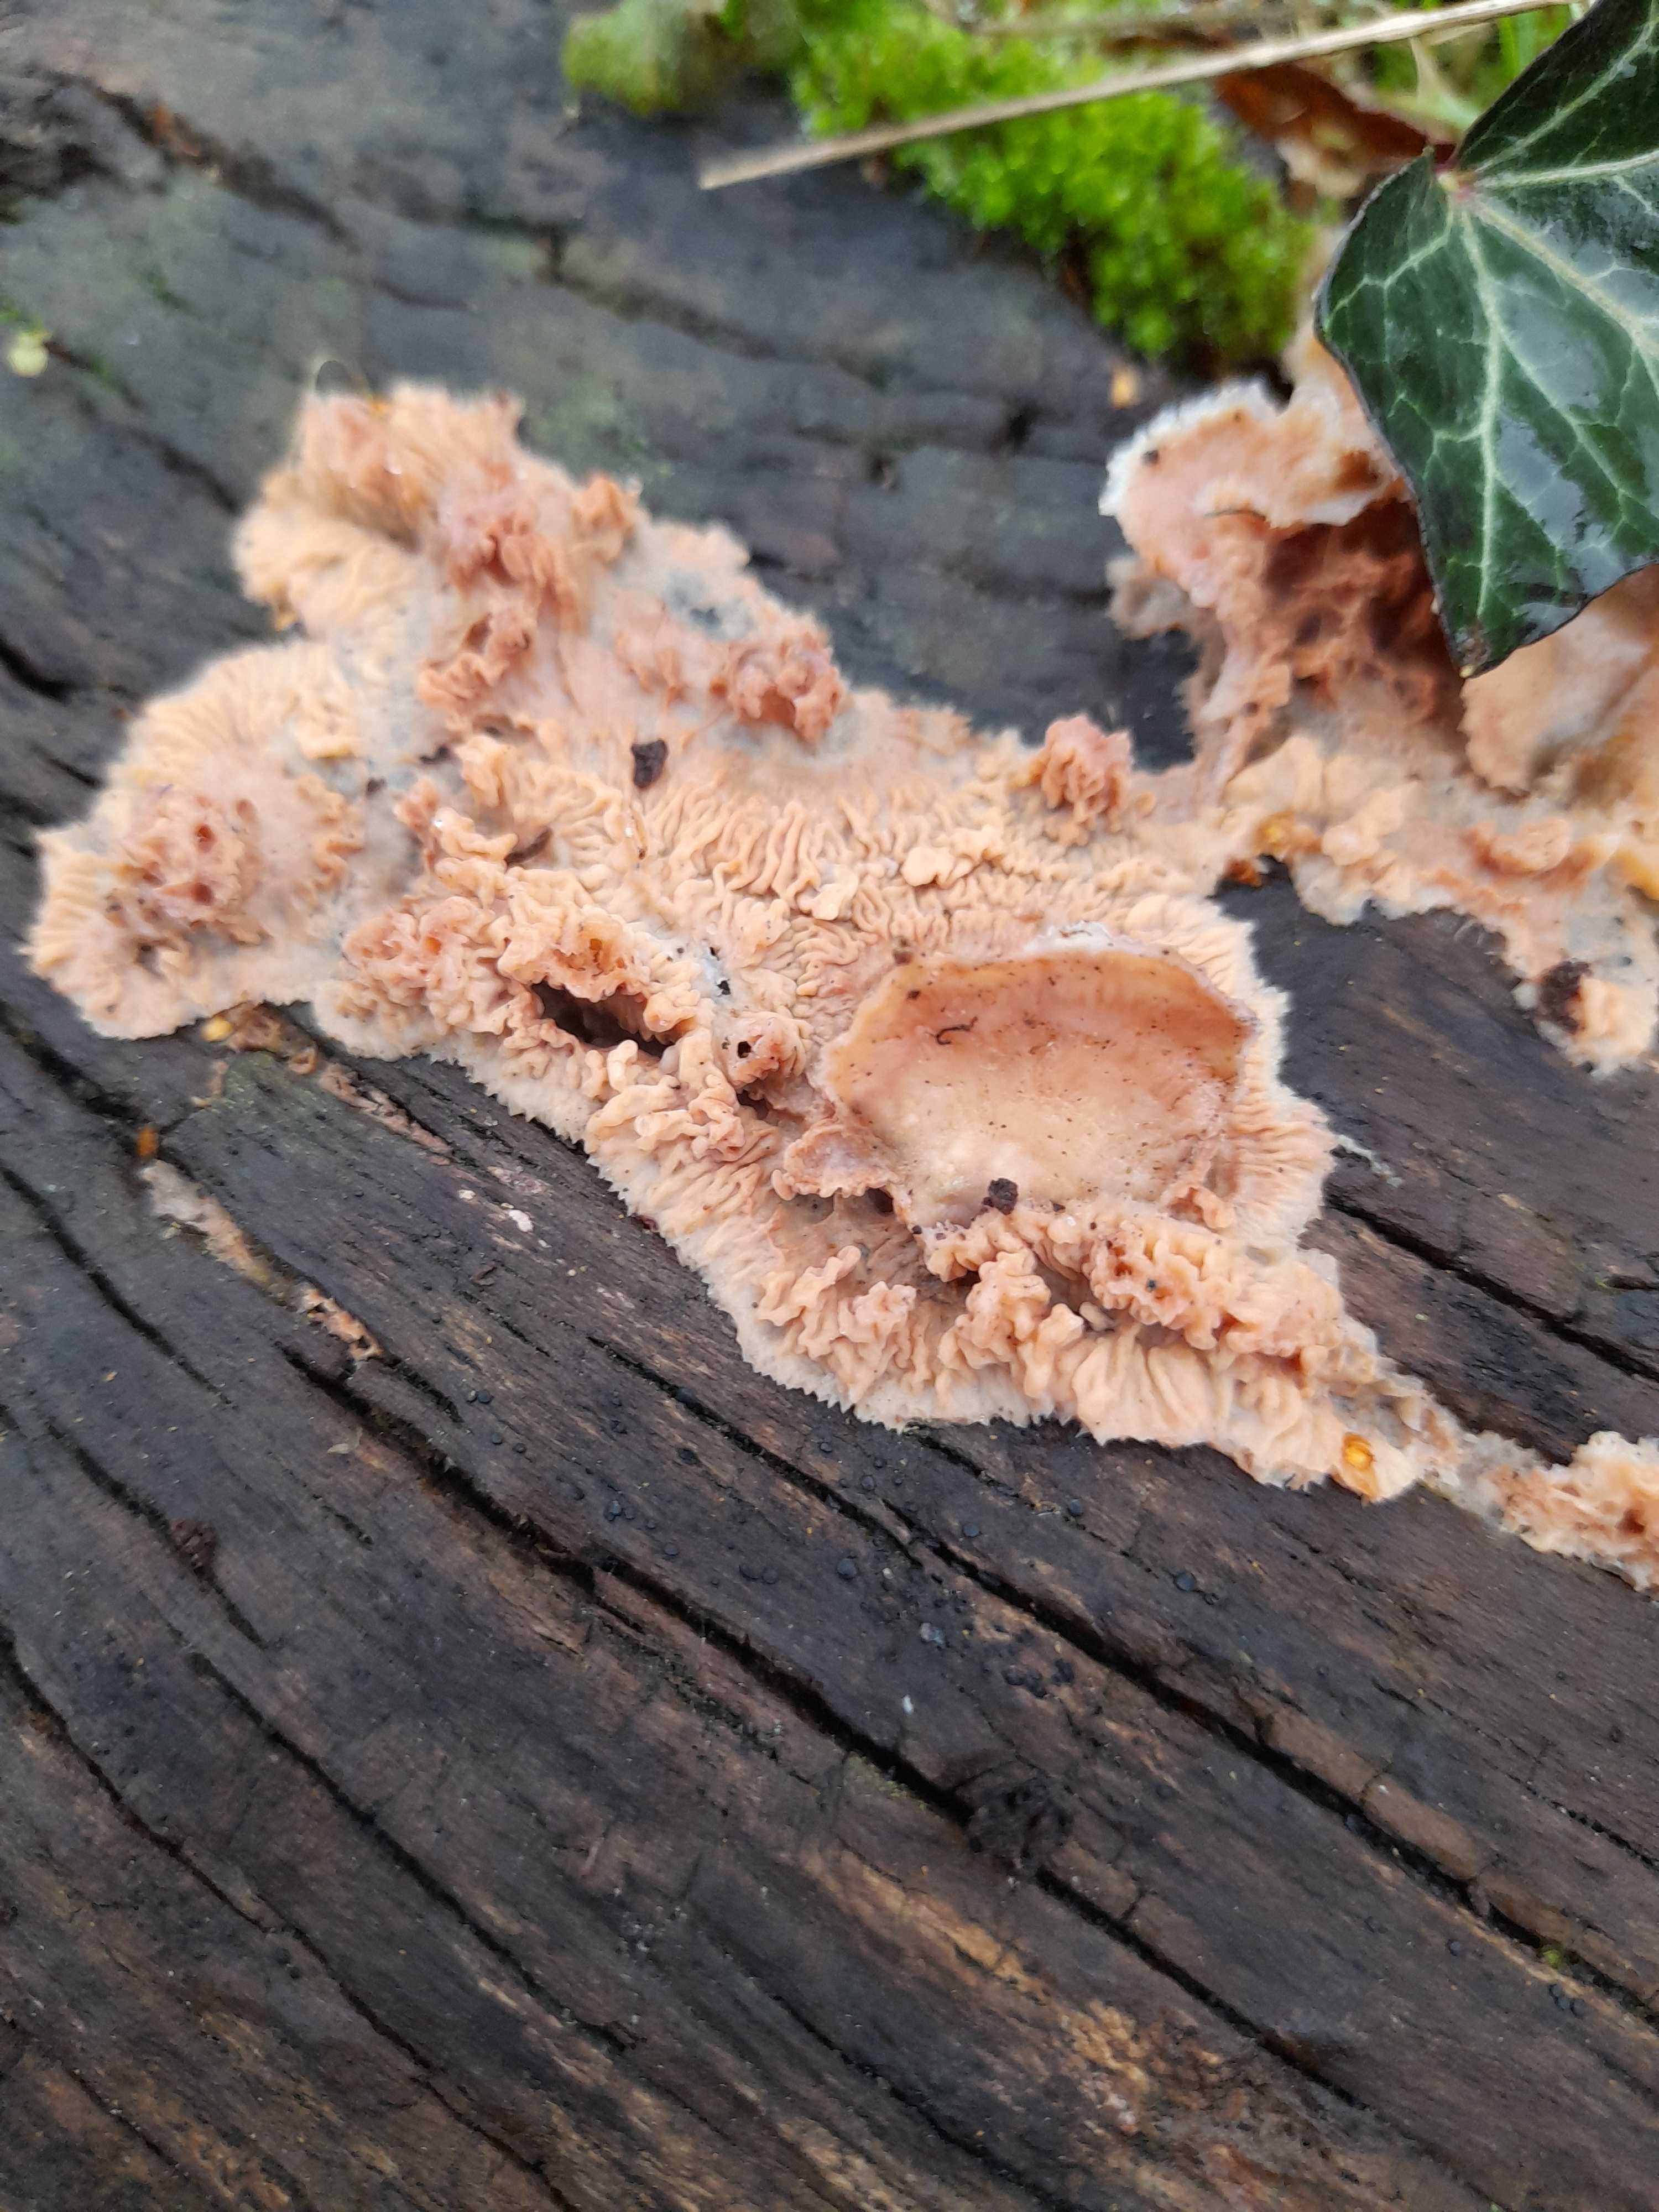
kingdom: Fungi
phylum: Basidiomycota
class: Agaricomycetes
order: Polyporales
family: Meruliaceae
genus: Phlebia
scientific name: Phlebia tremellosa
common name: bævrende åresvamp
